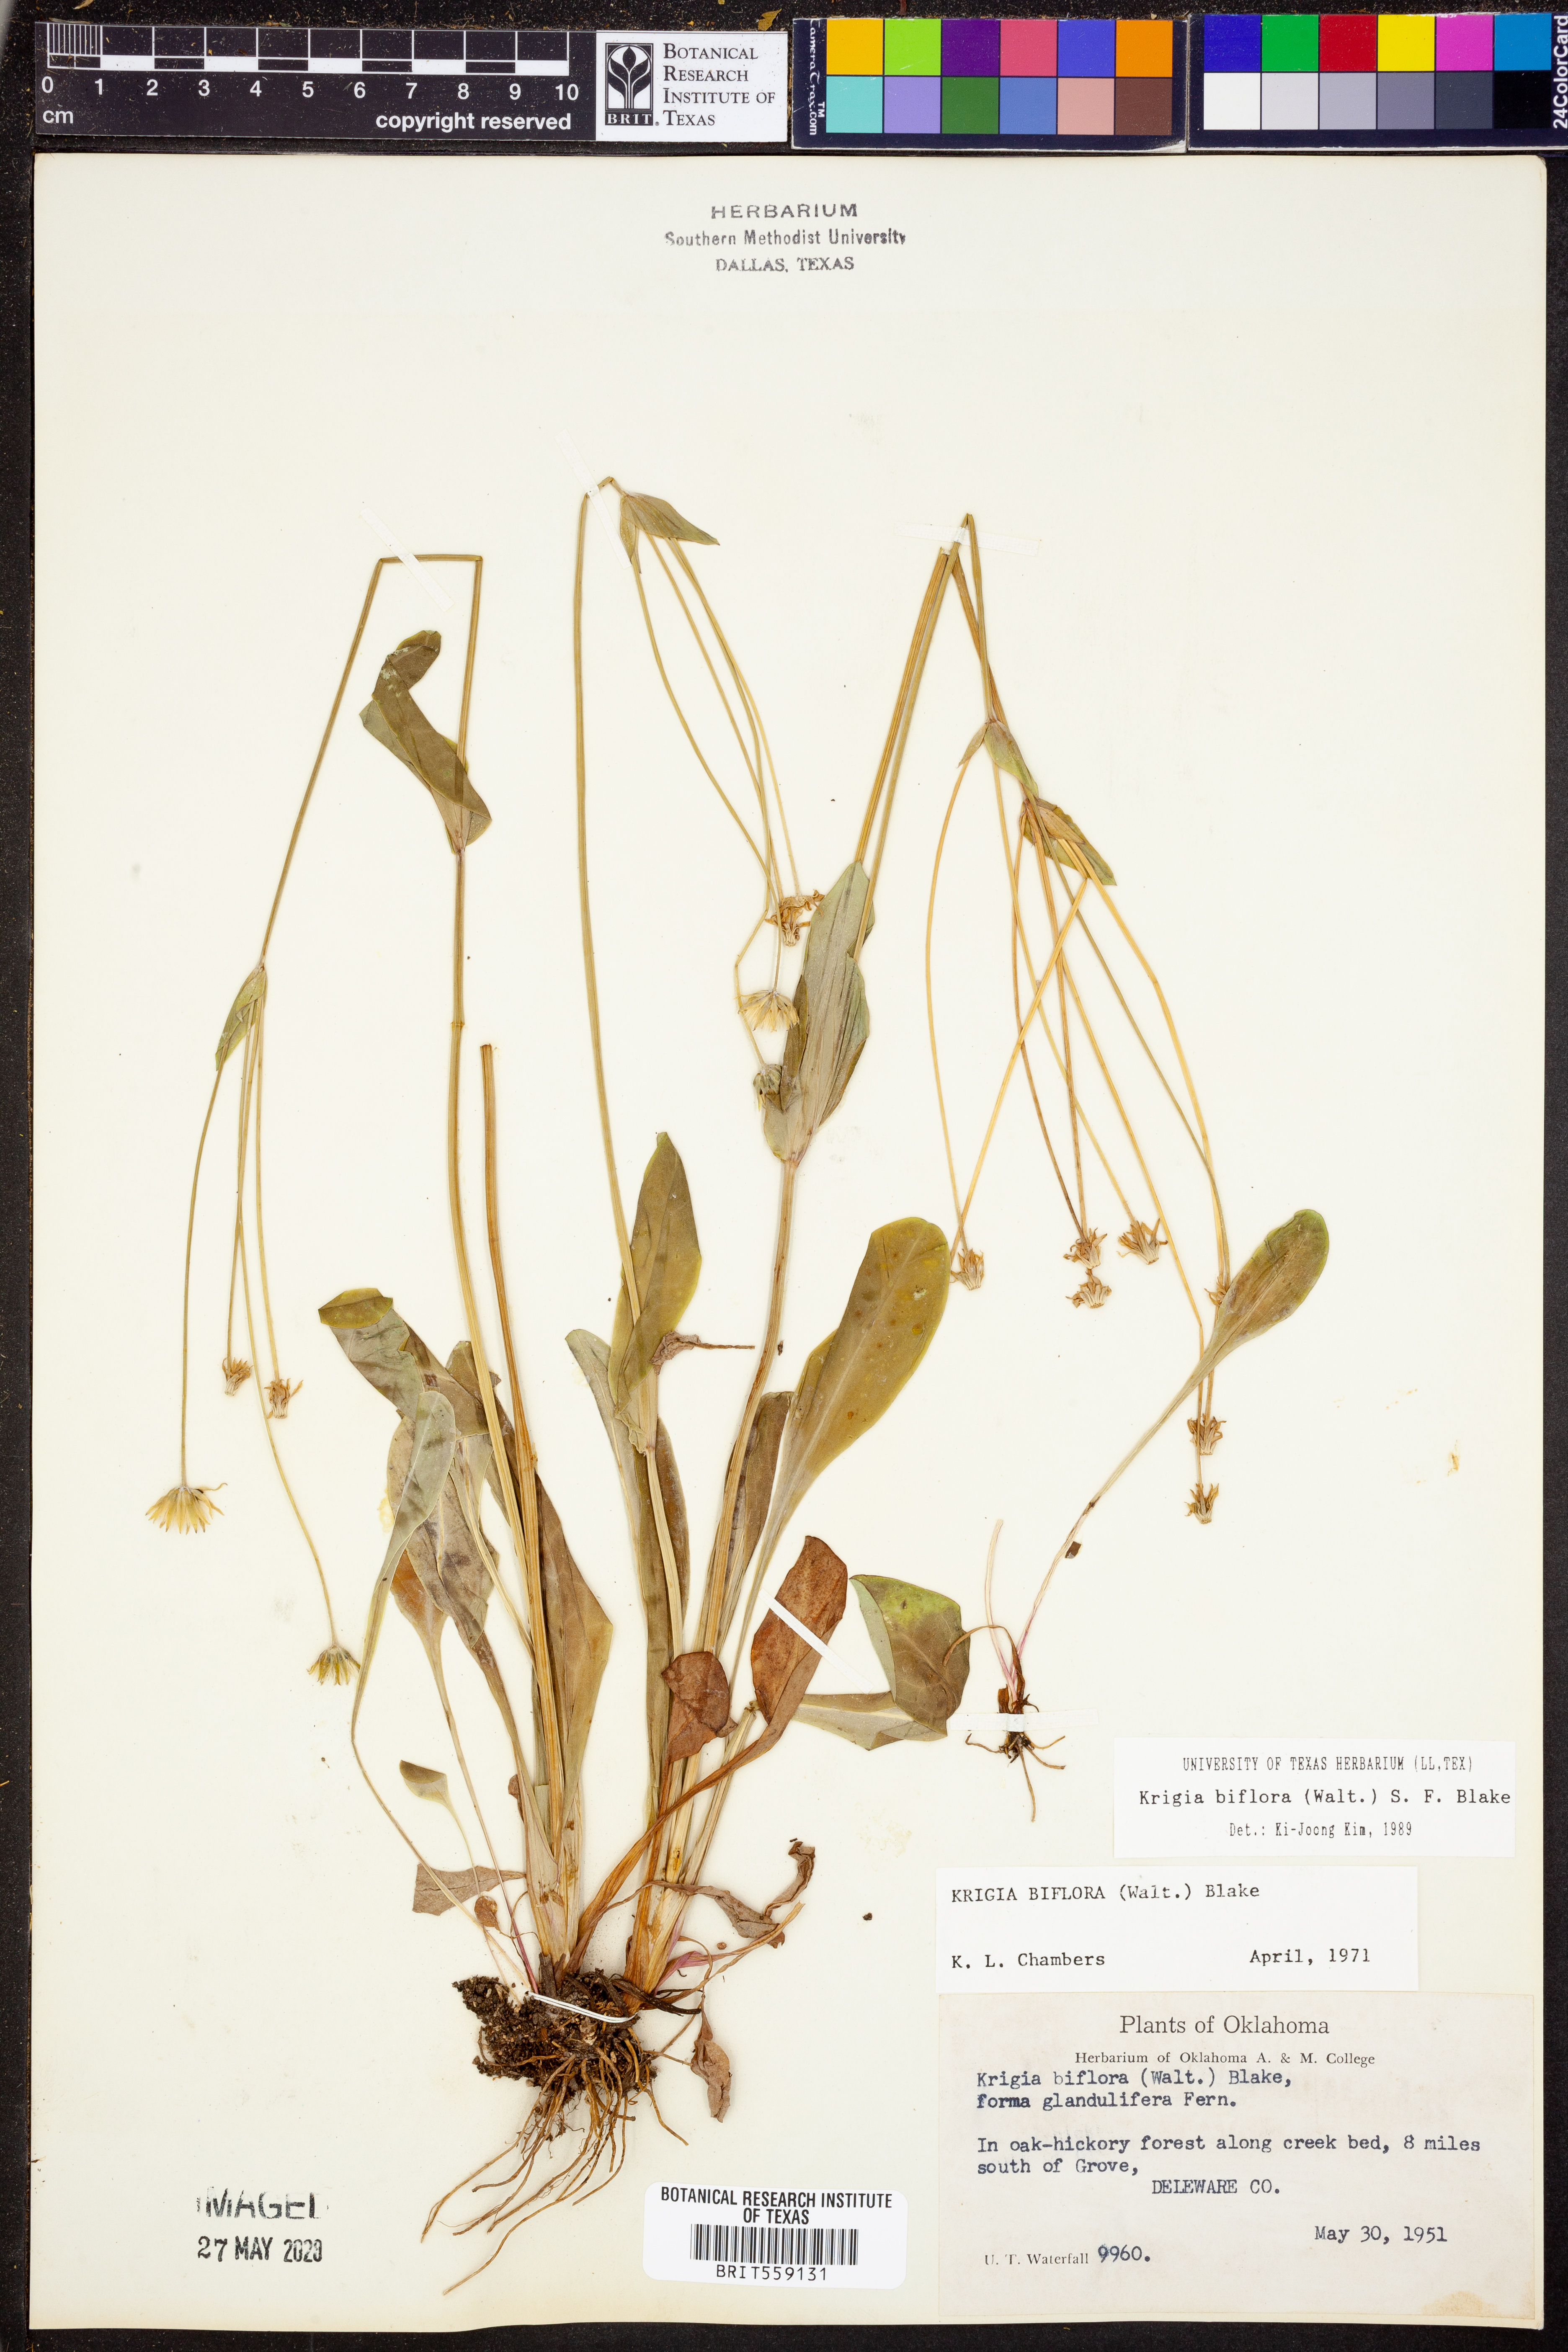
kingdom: Plantae
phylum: Tracheophyta
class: Magnoliopsida
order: Asterales
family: Asteraceae
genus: Krigia
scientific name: Krigia biflora
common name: Orange dwarf-dandelion
